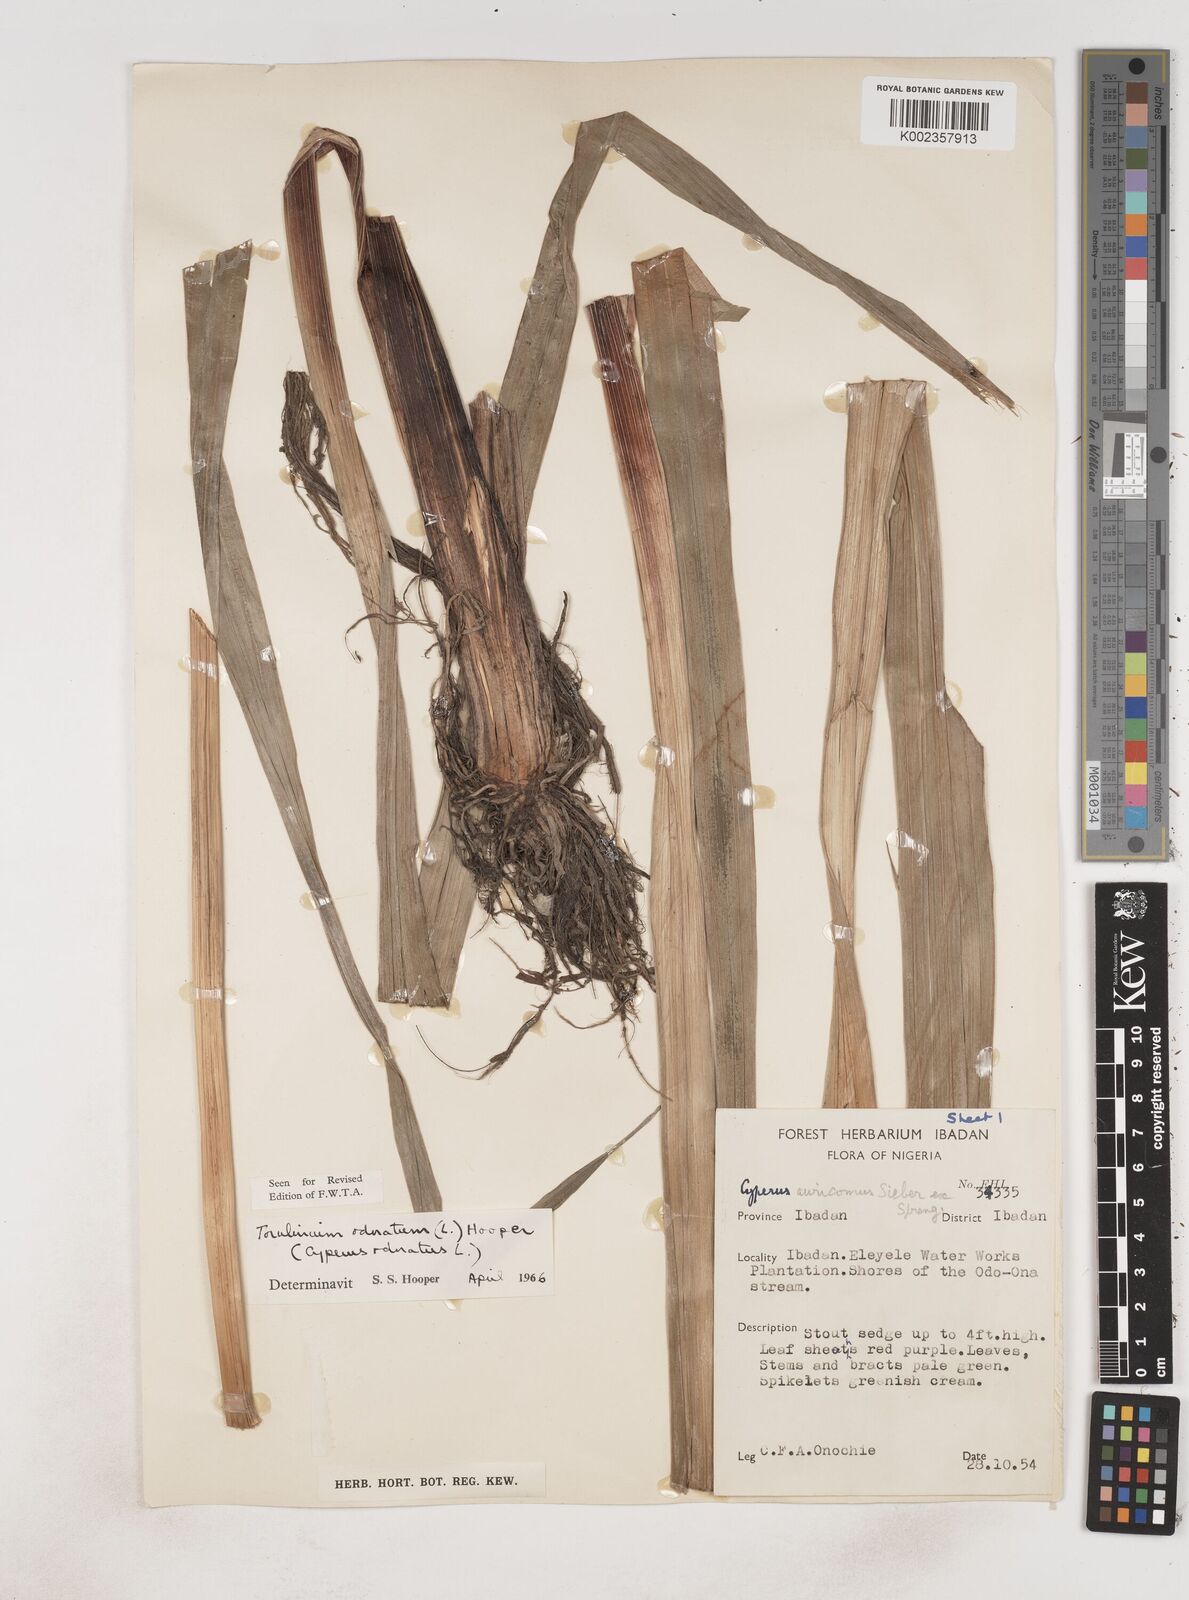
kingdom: Plantae
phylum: Tracheophyta
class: Liliopsida
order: Poales
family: Cyperaceae
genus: Cyperus
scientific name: Cyperus odoratus
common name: Fragrant flatsedge
